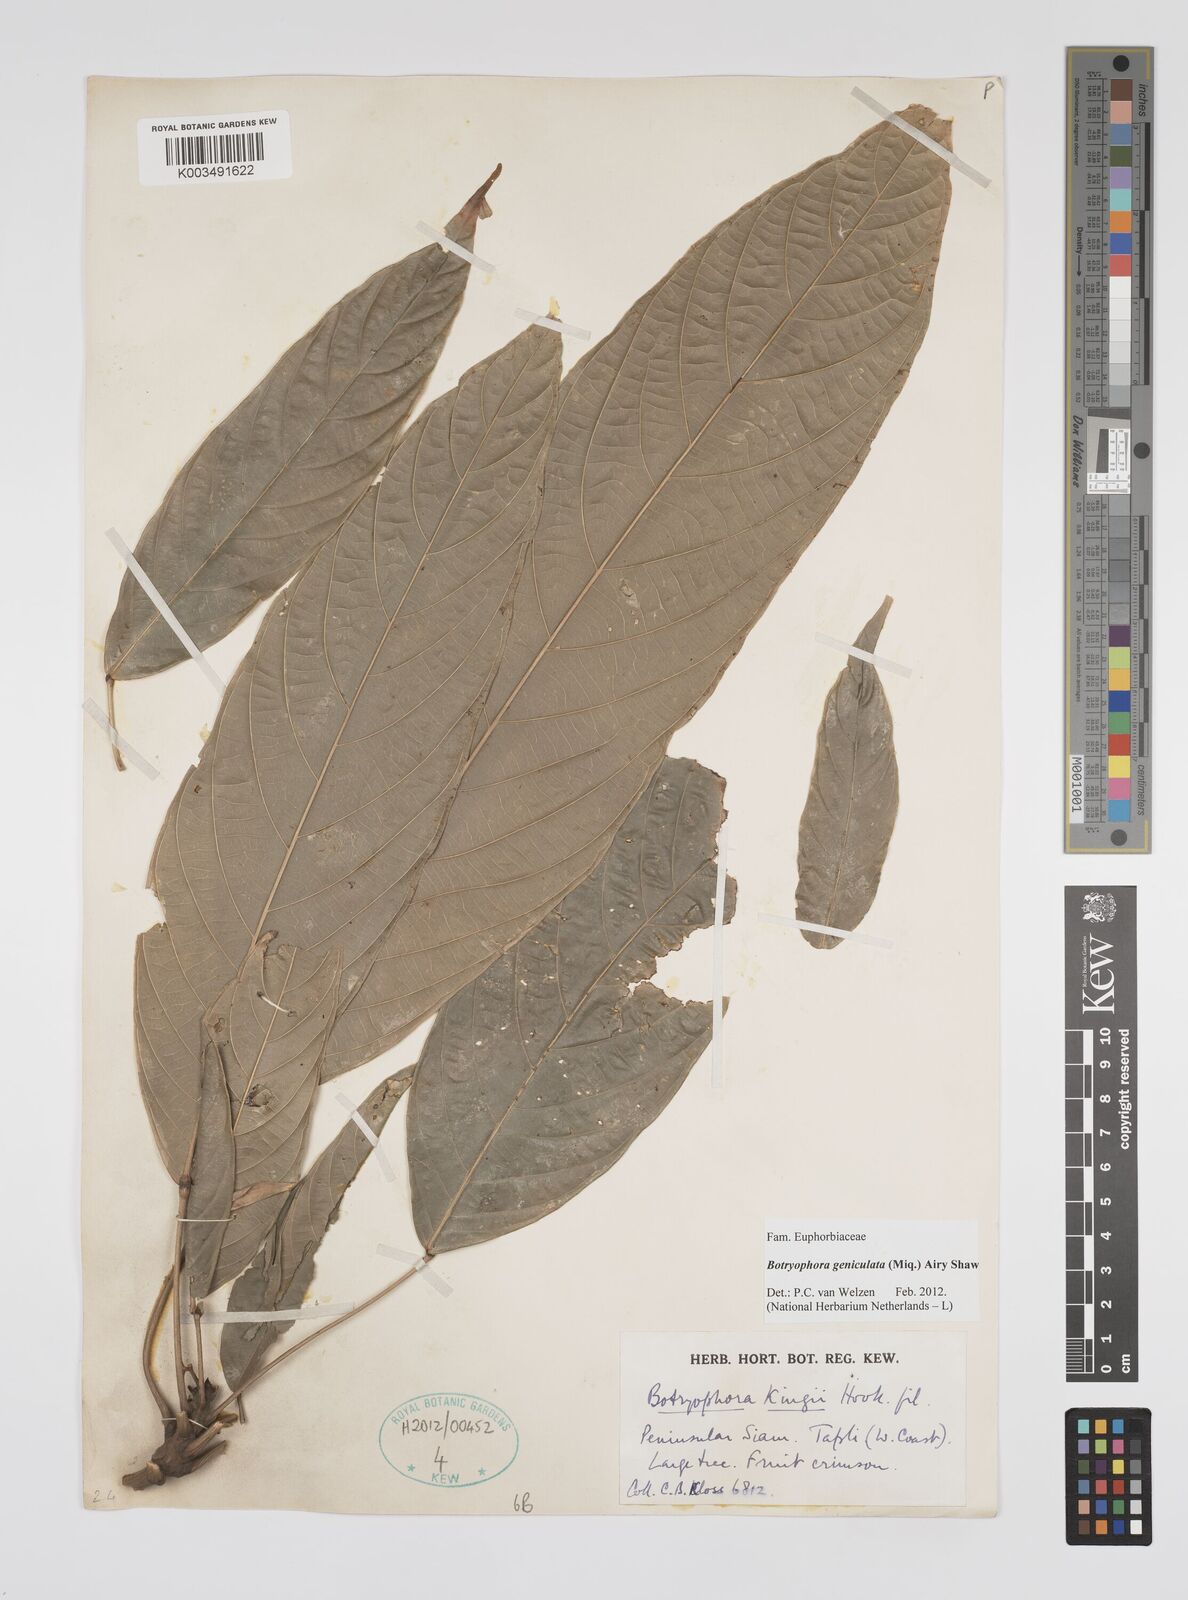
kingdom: Plantae
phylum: Tracheophyta
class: Magnoliopsida
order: Malpighiales
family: Euphorbiaceae
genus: Botryophora
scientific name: Botryophora geniculata
